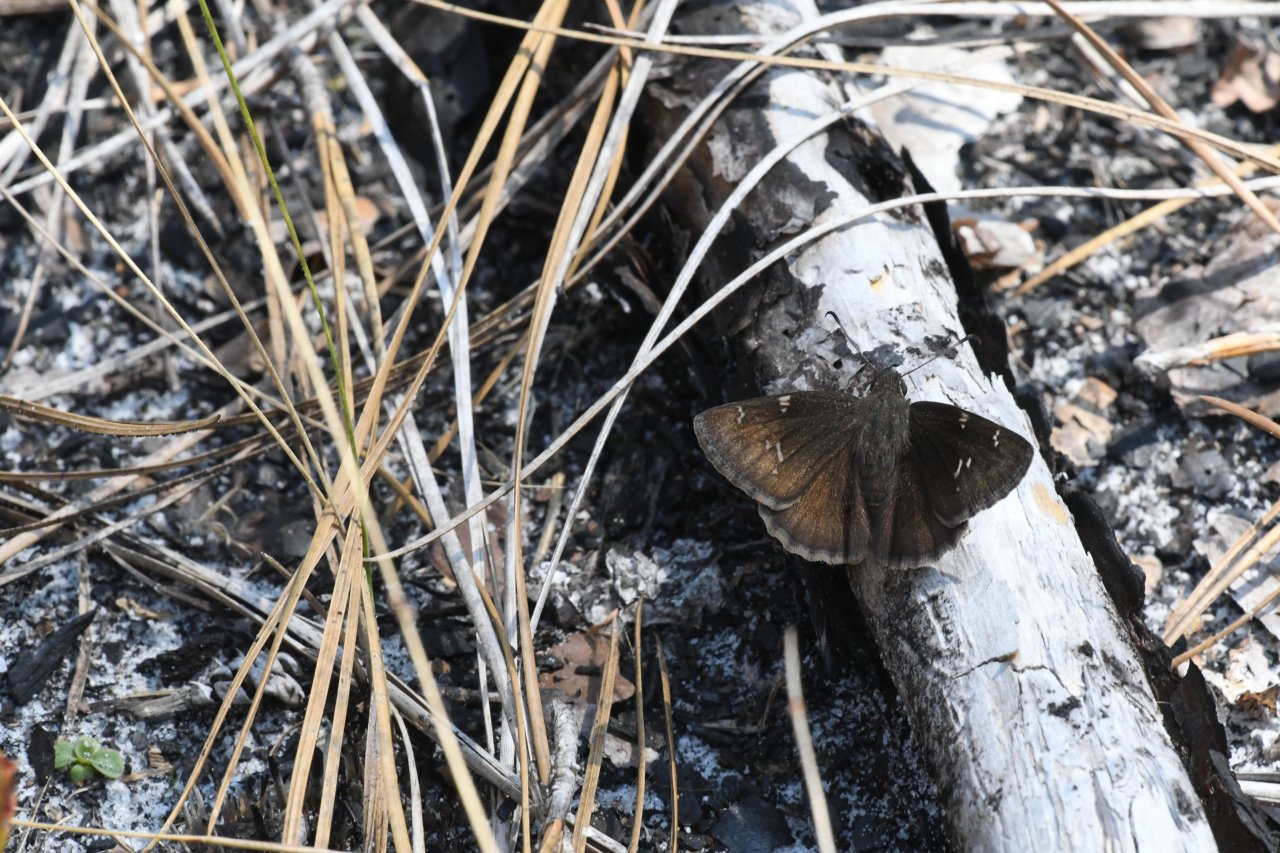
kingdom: Animalia
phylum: Arthropoda
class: Insecta
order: Lepidoptera
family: Hesperiidae
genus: Thorybes
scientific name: Thorybes mexicana
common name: Confused Cloudywing
